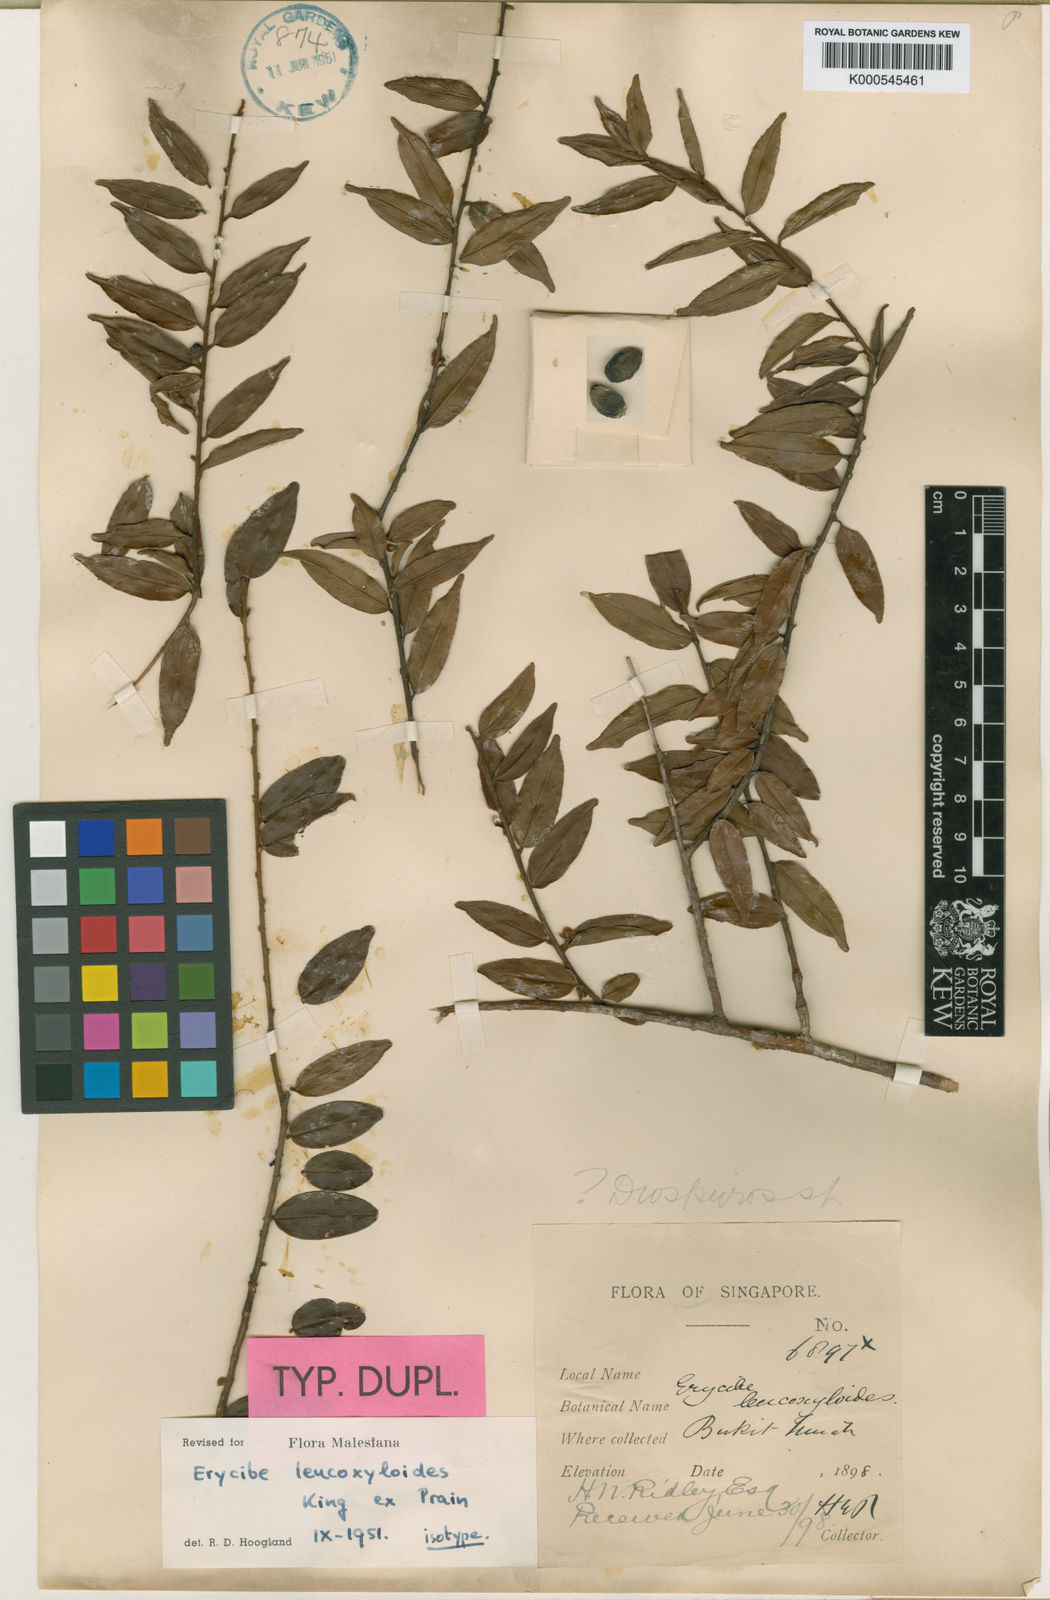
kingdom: Plantae
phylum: Tracheophyta
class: Magnoliopsida
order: Solanales
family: Convolvulaceae
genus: Erycibe
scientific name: Erycibe
